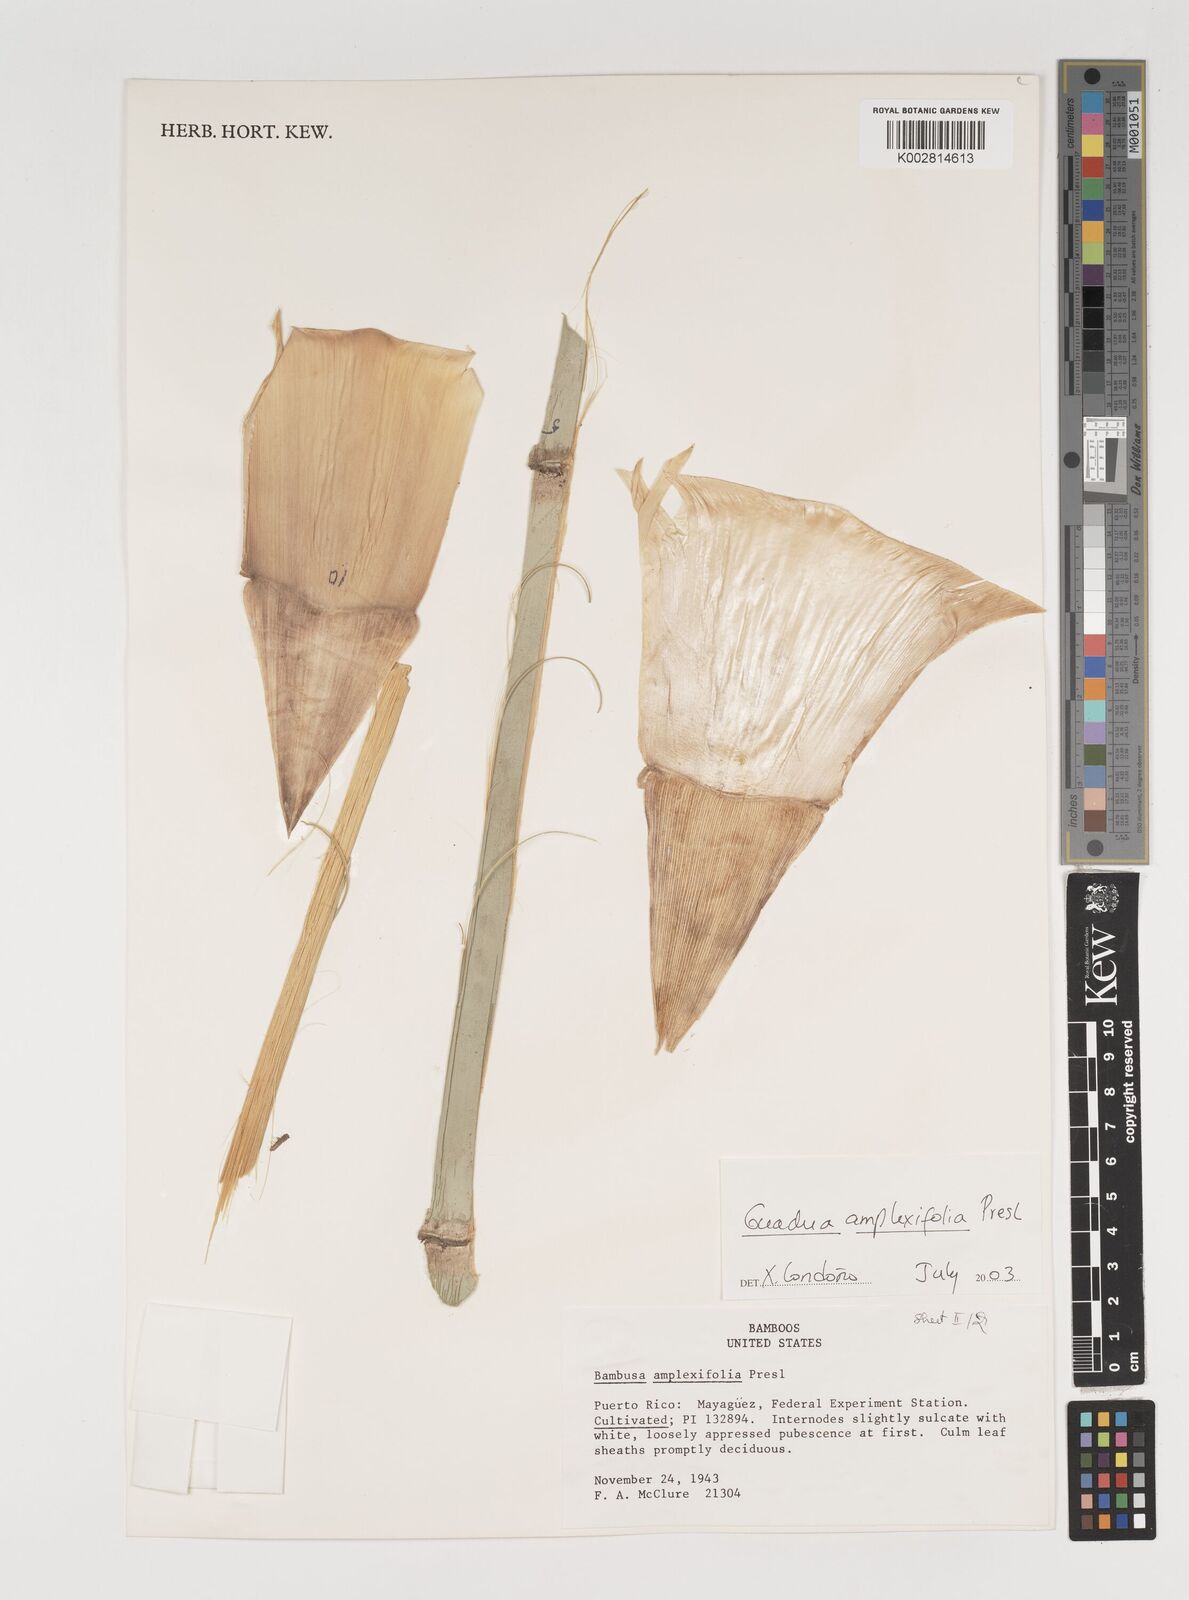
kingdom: Plantae
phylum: Tracheophyta
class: Liliopsida
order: Poales
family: Poaceae
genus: Guadua
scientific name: Guadua amplexifolia
